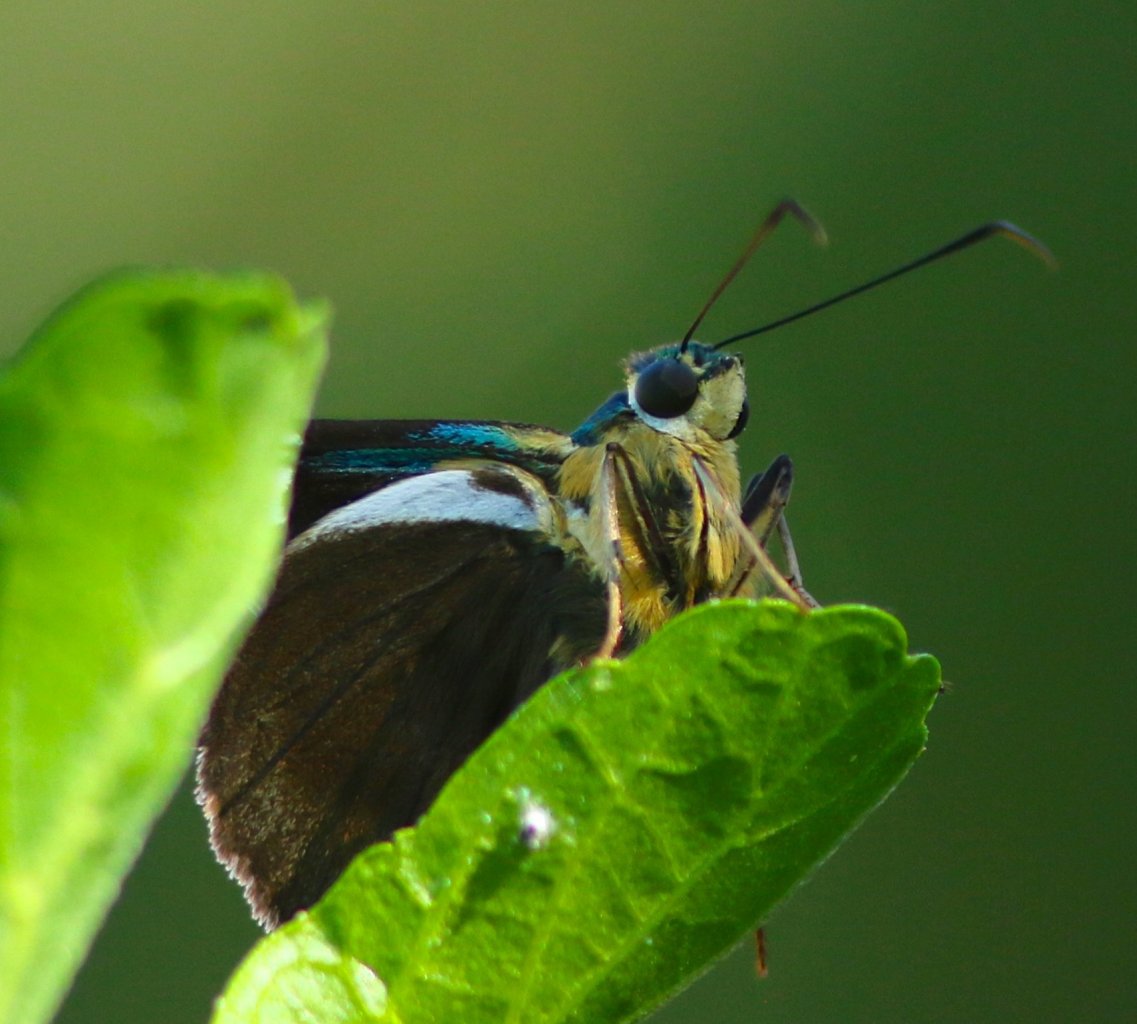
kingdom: Animalia
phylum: Arthropoda
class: Insecta
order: Lepidoptera
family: Hesperiidae
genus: Astraptes
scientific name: Astraptes fulgerator
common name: Two-barred Flasher
